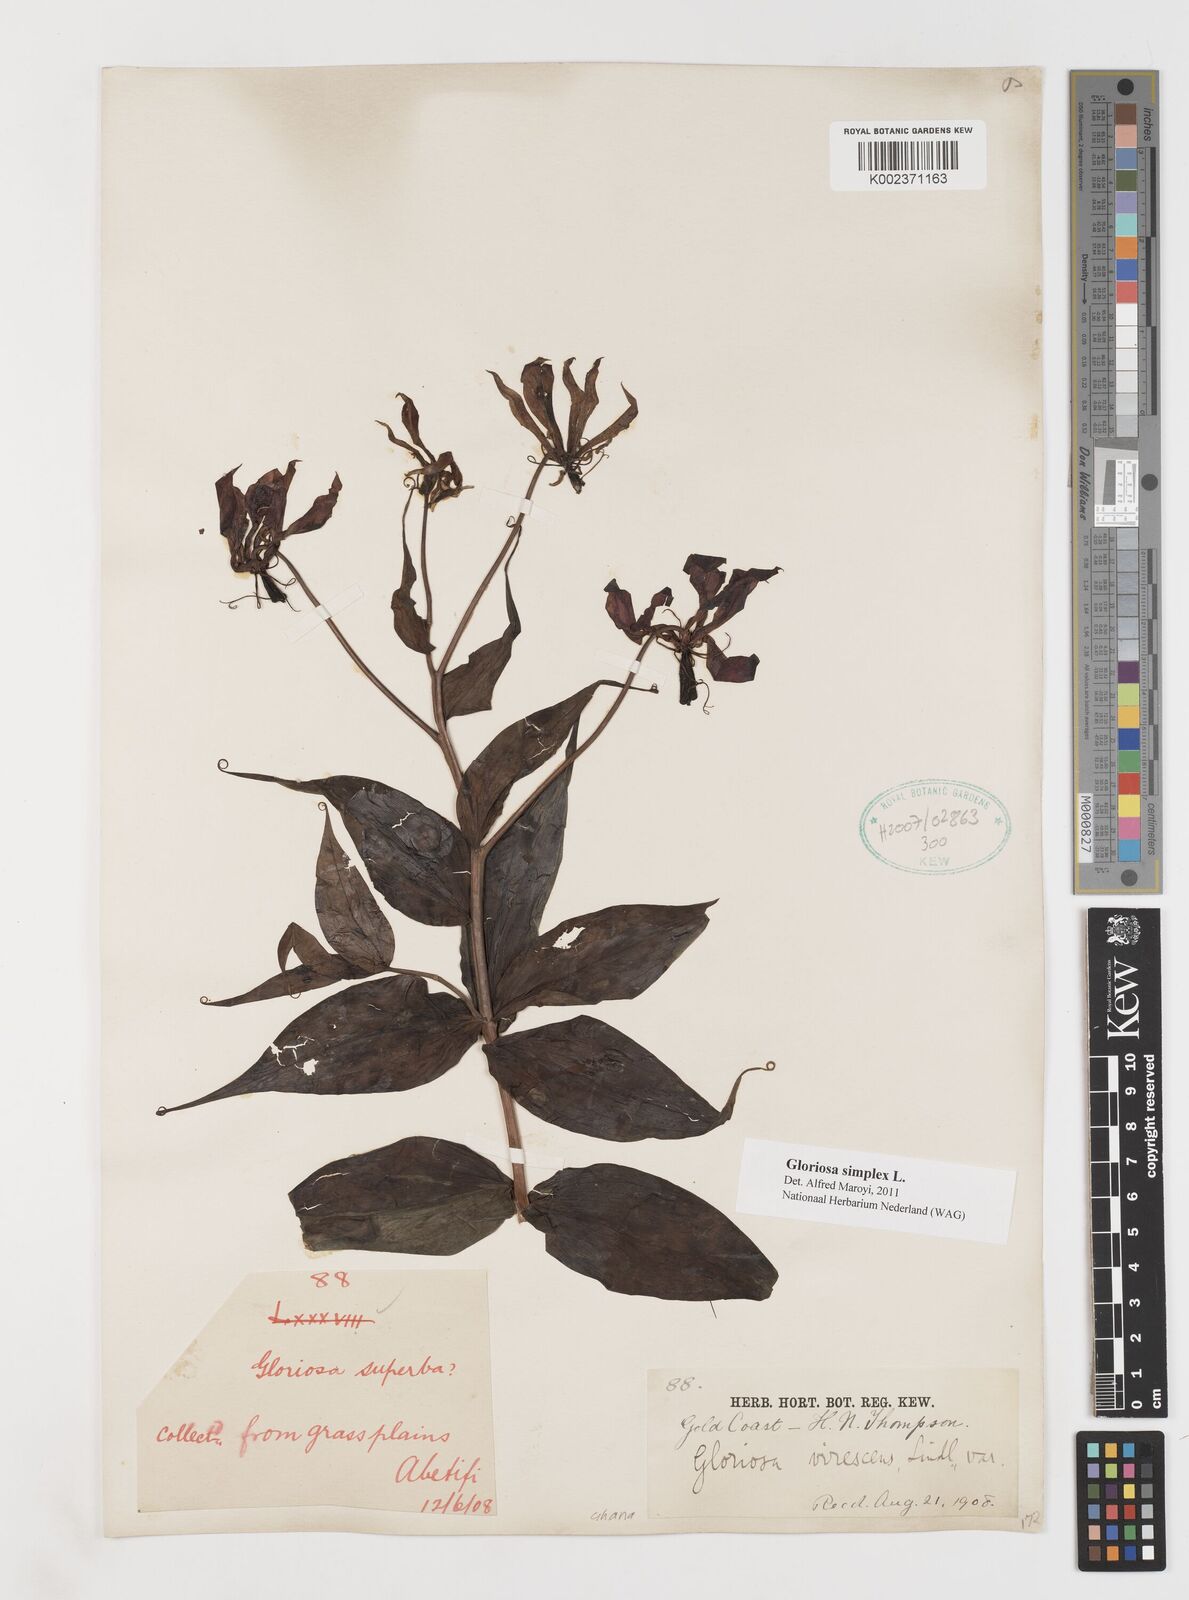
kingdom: Plantae
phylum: Tracheophyta
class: Liliopsida
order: Liliales
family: Colchicaceae
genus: Gloriosa
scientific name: Gloriosa simplex
